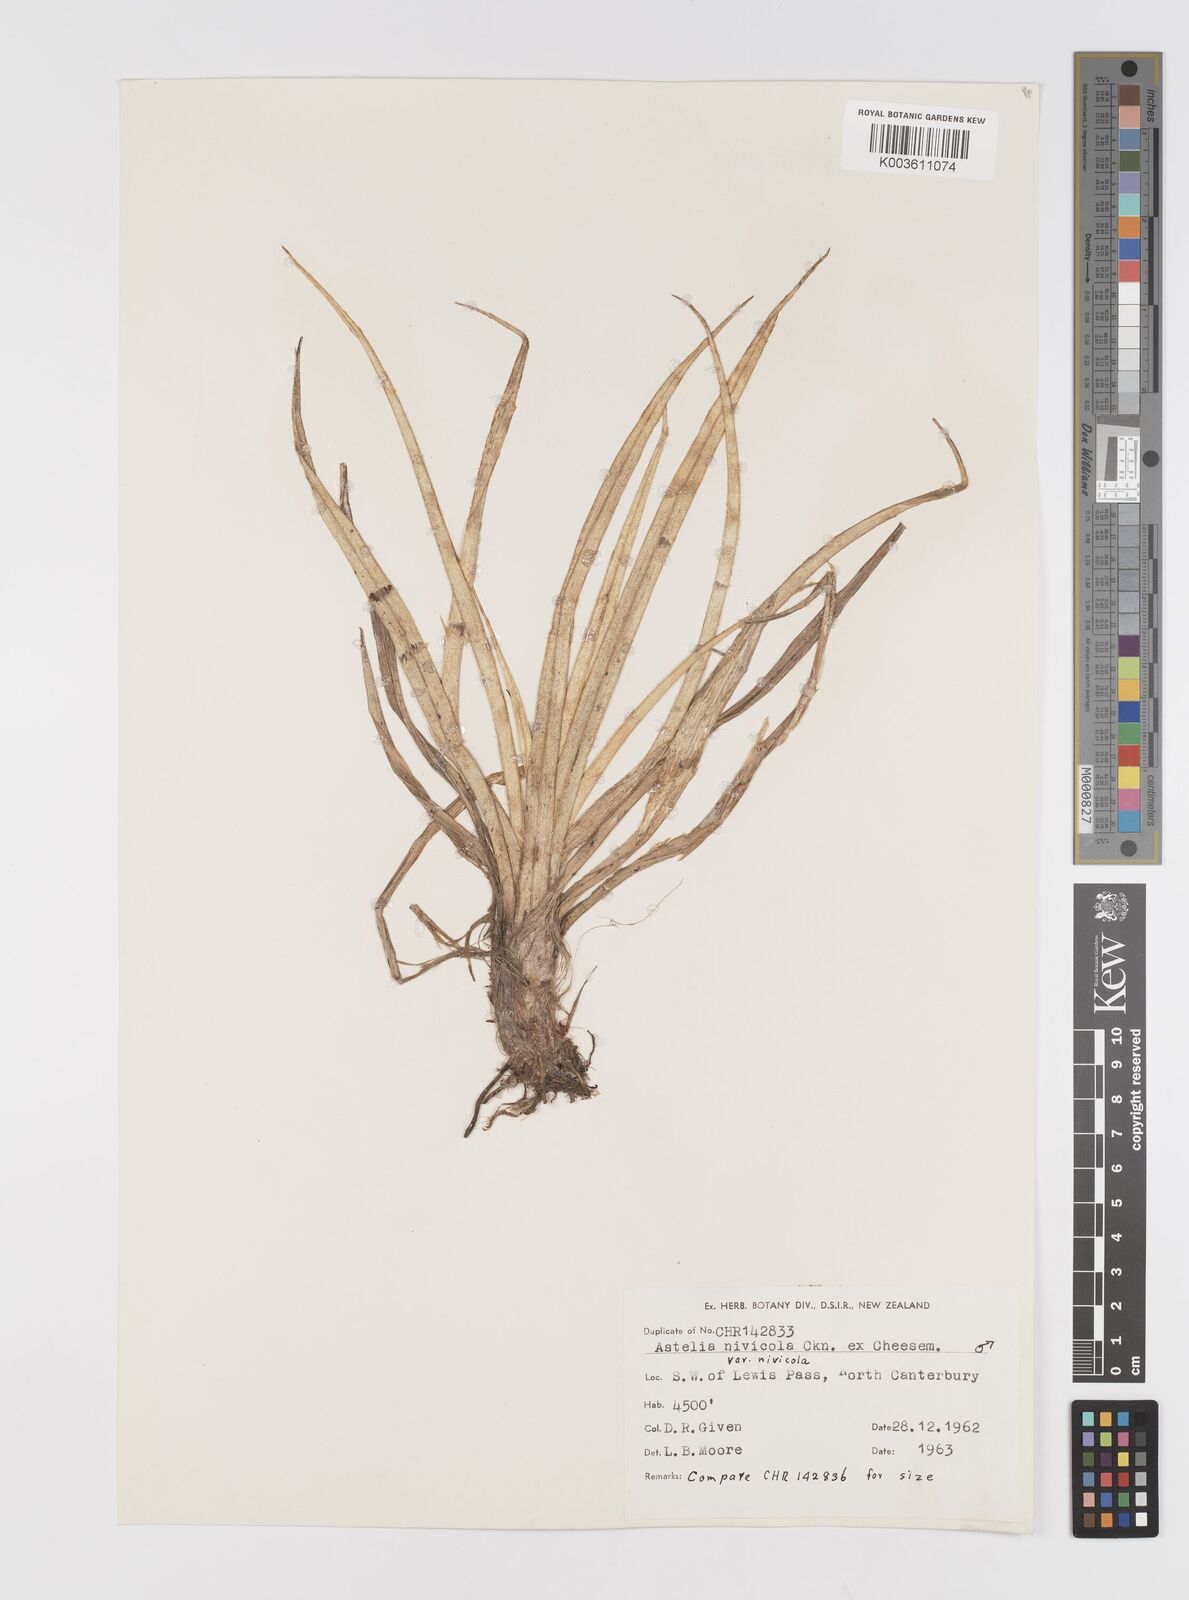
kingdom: Plantae
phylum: Tracheophyta
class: Liliopsida
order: Asparagales
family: Asteliaceae
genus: Astelia
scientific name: Astelia
